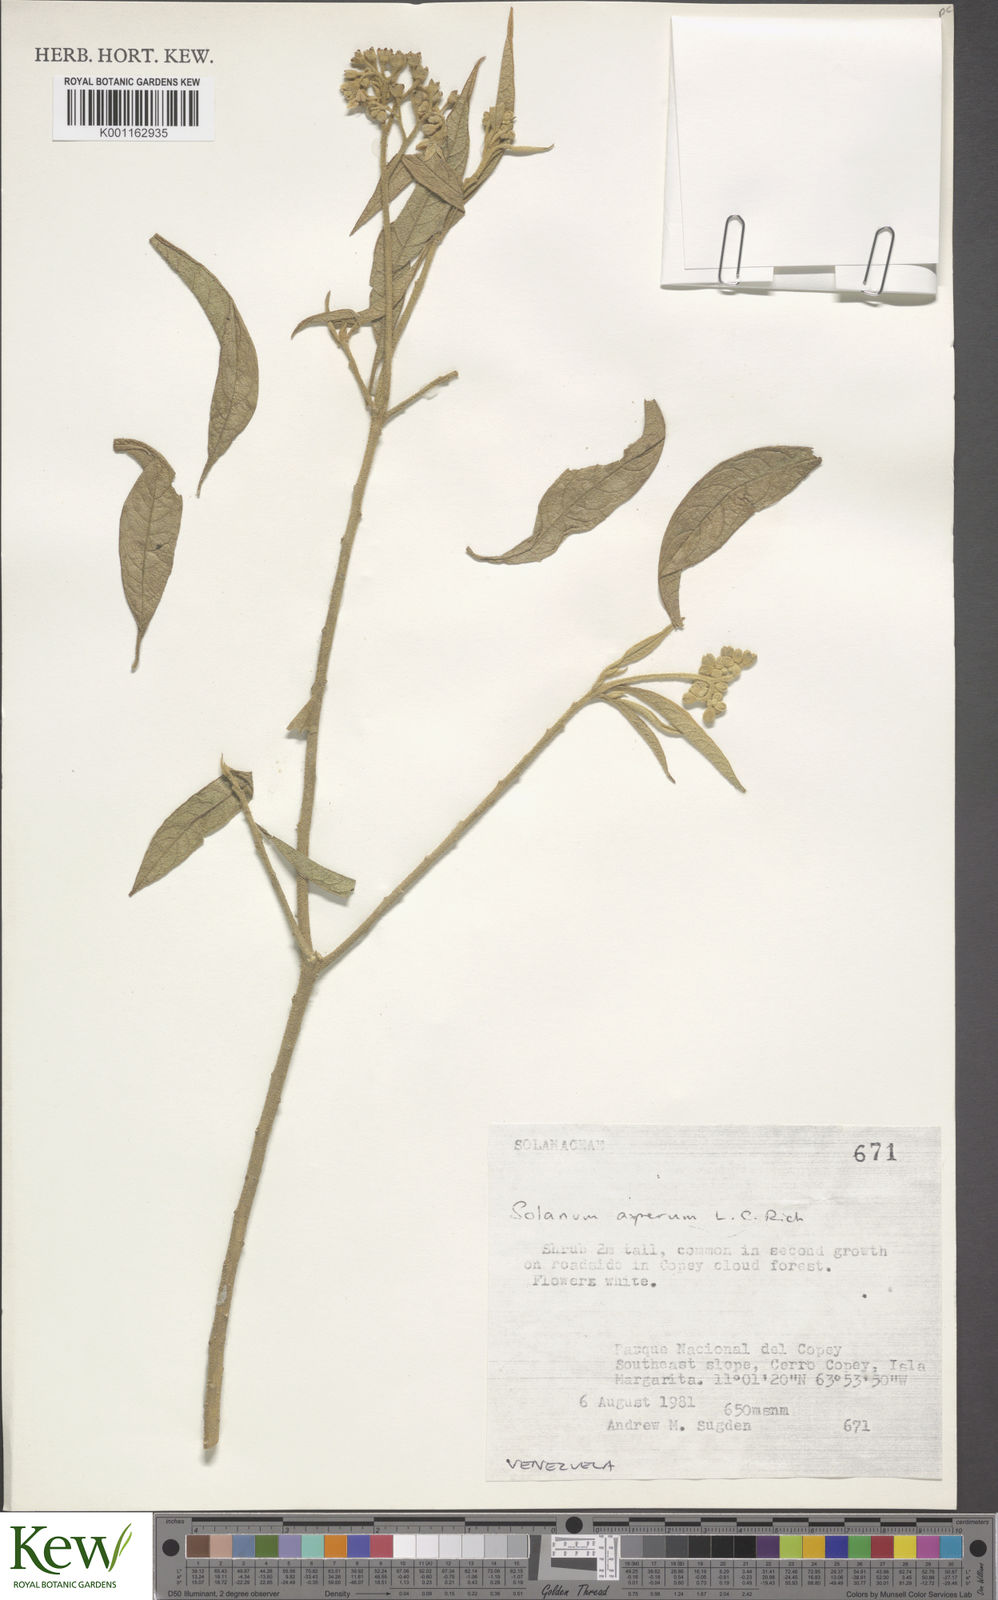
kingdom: Plantae
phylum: Tracheophyta
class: Magnoliopsida
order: Solanales
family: Solanaceae
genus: Solanum
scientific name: Solanum asperum
